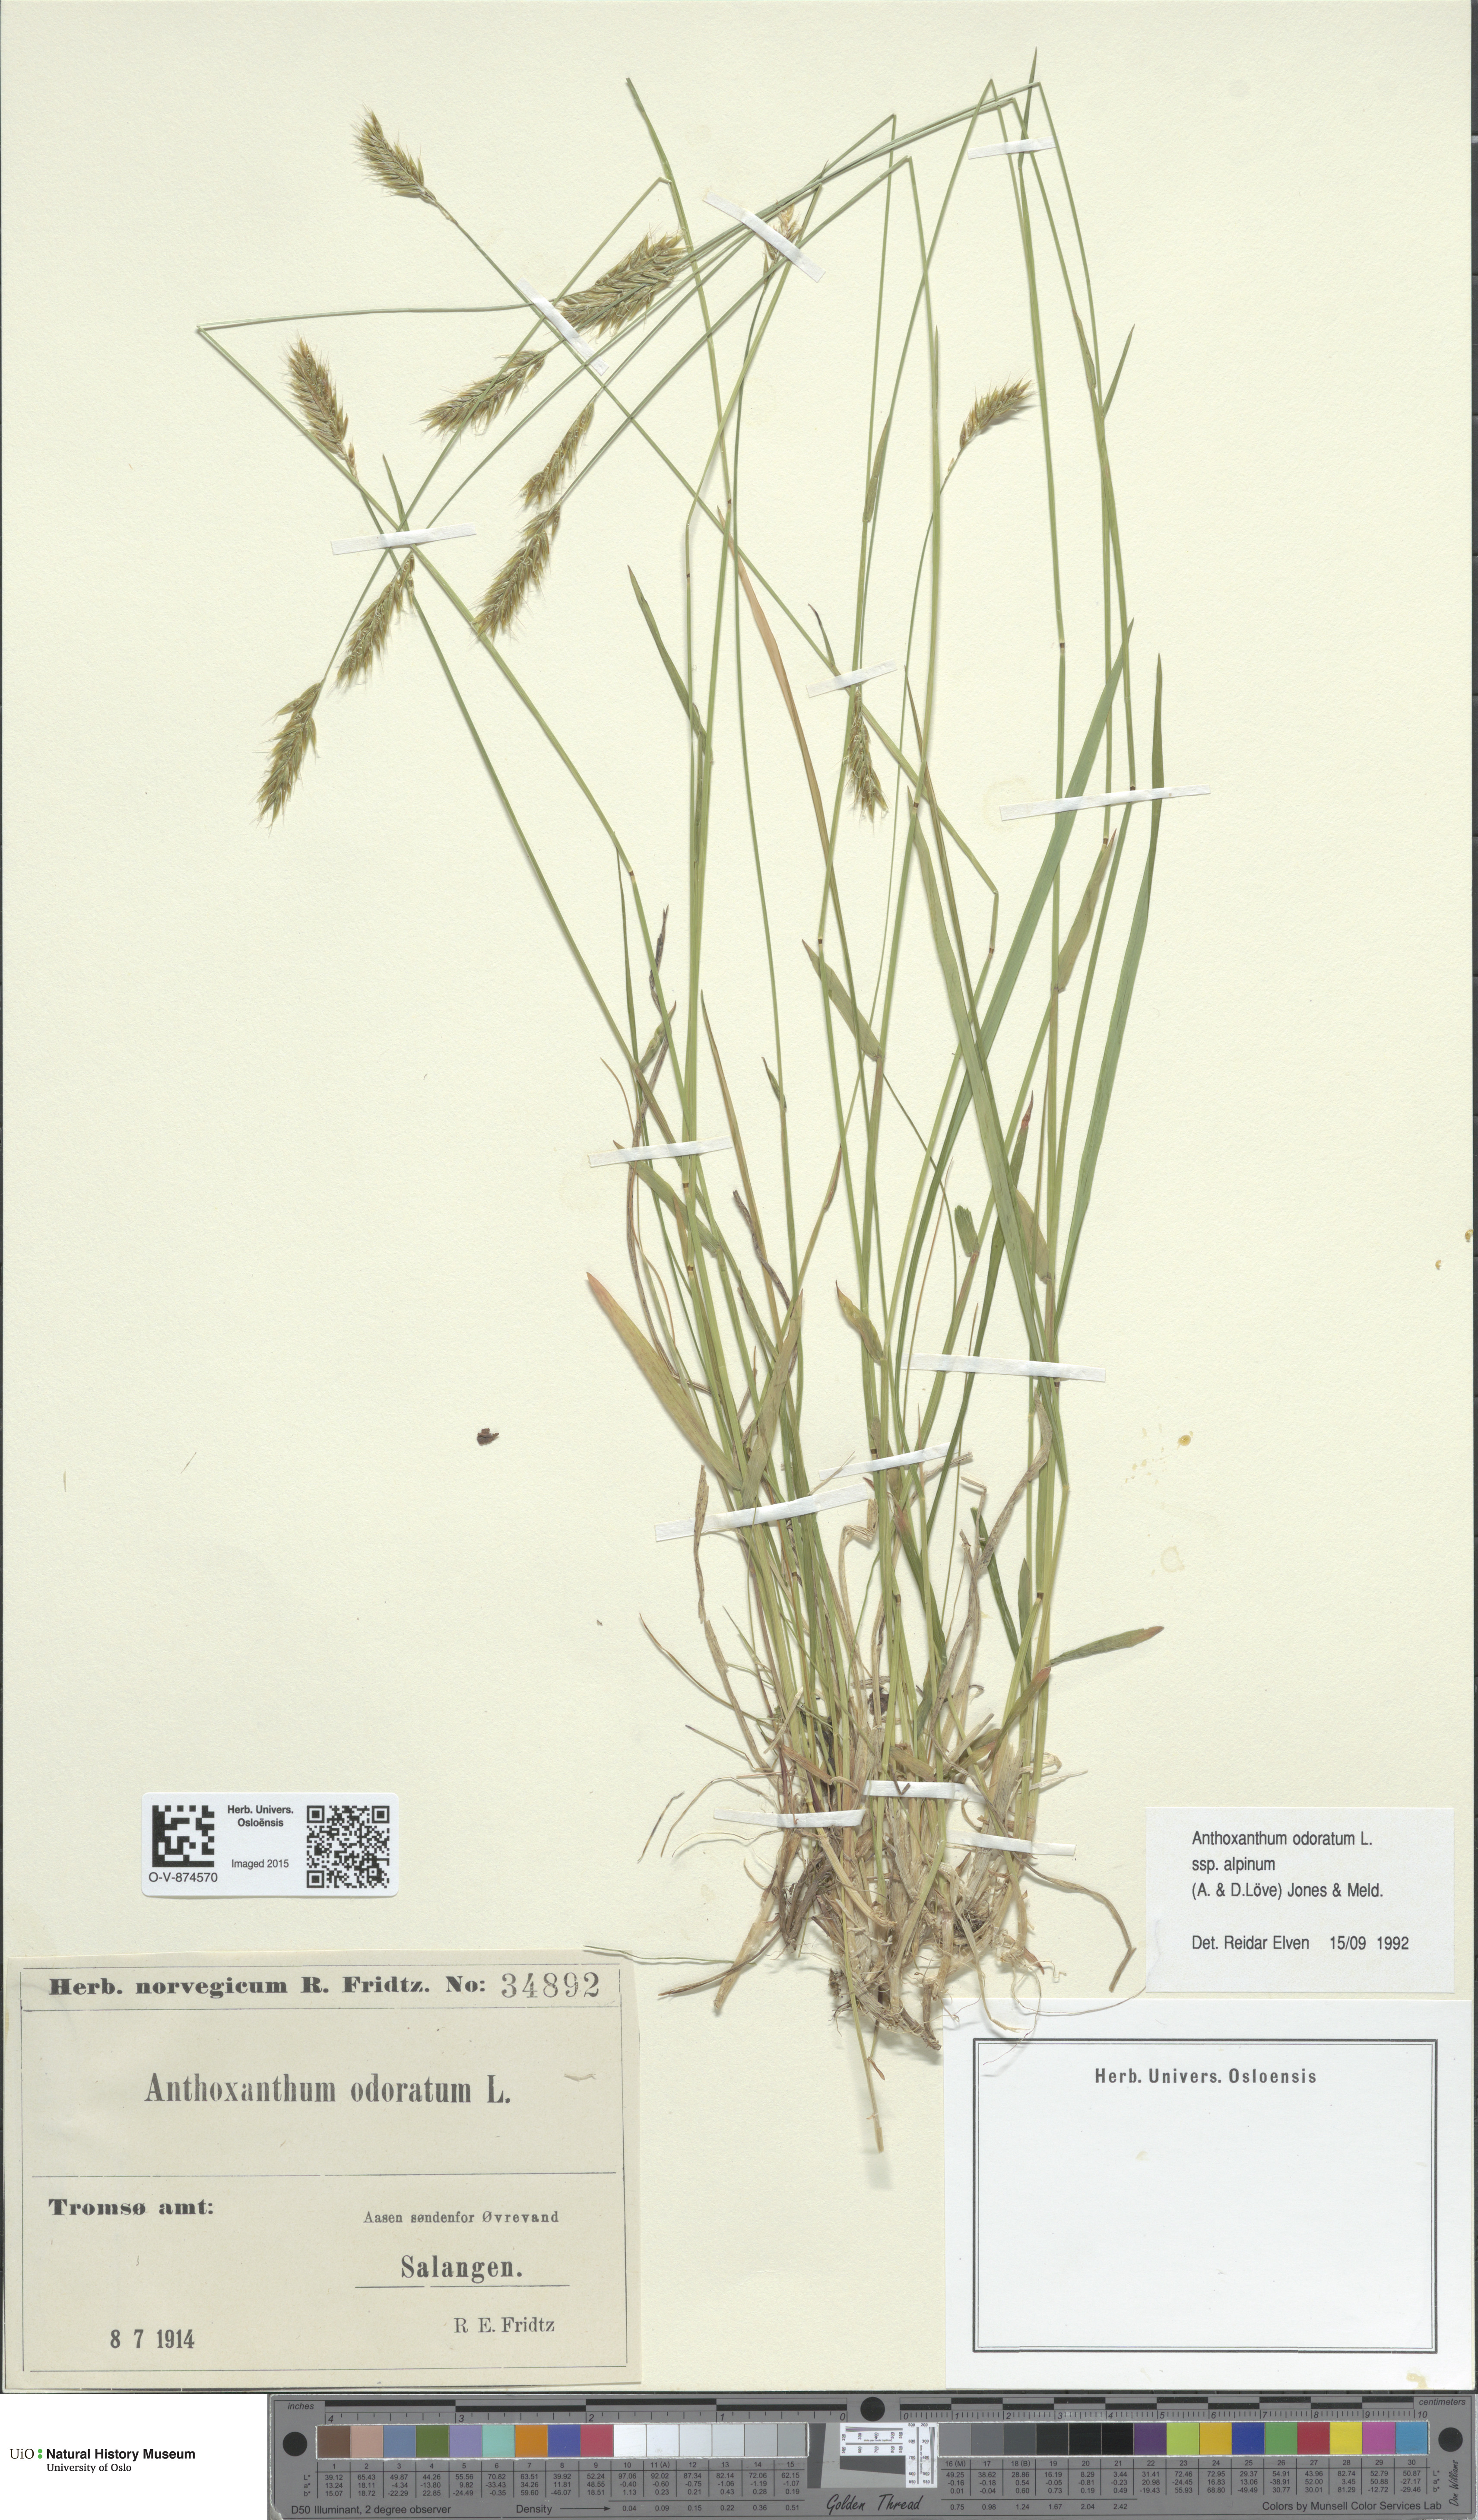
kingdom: Plantae
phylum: Tracheophyta
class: Liliopsida
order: Poales
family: Poaceae
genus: Anthoxanthum
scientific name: Anthoxanthum nipponicum
